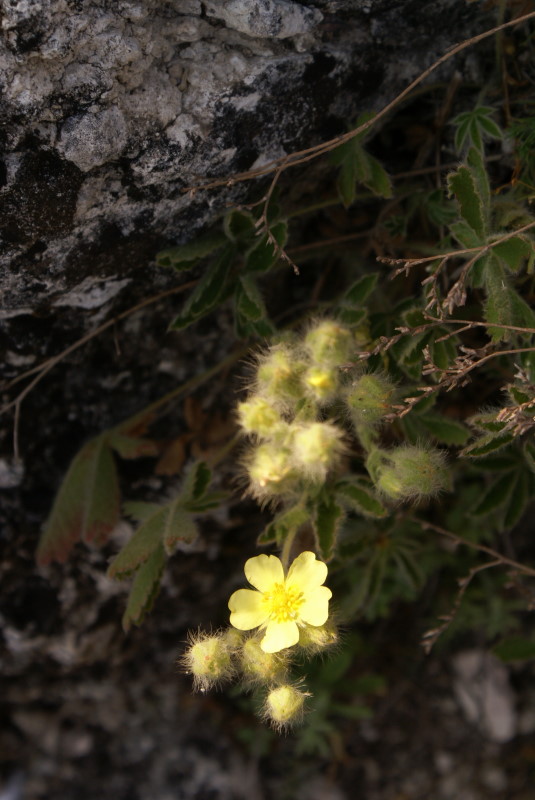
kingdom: Plantae
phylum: Tracheophyta
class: Magnoliopsida
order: Rosales
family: Rosaceae
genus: Potentilla
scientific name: Potentilla
